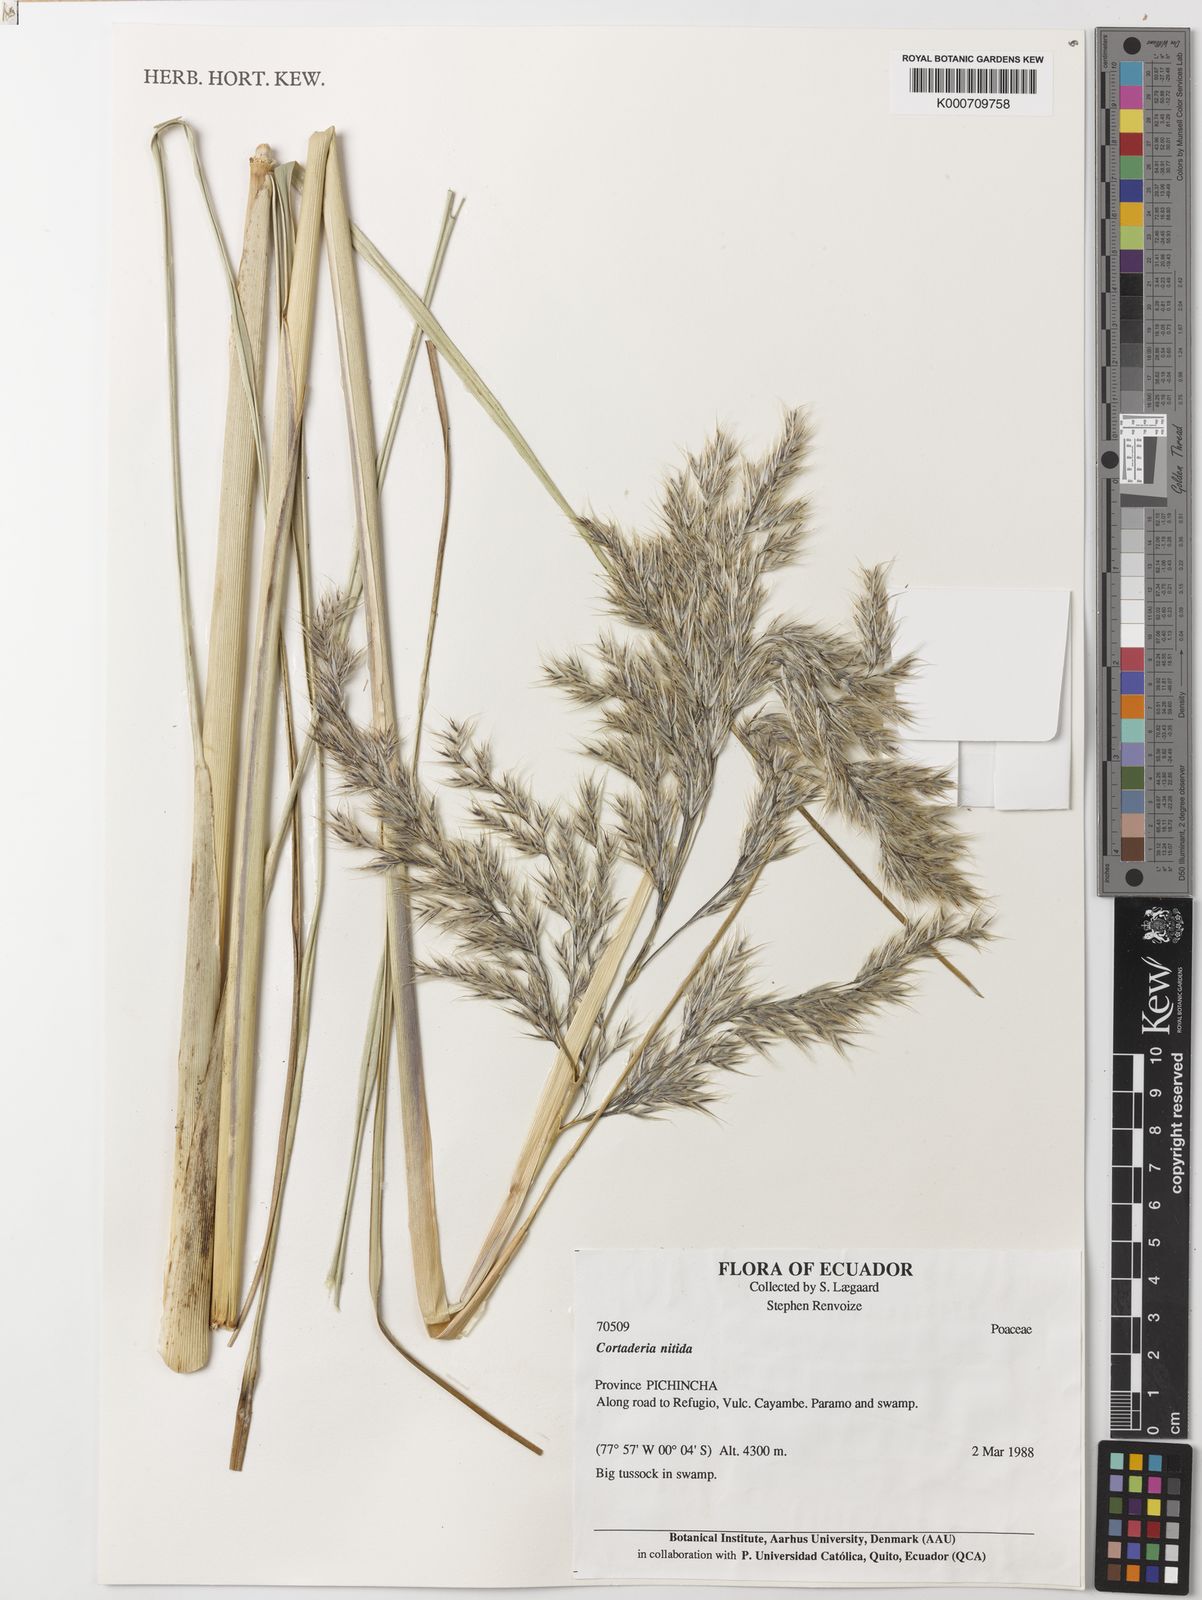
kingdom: Plantae
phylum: Tracheophyta
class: Liliopsida
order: Poales
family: Poaceae
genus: Cortaderia
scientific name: Cortaderia nitida
